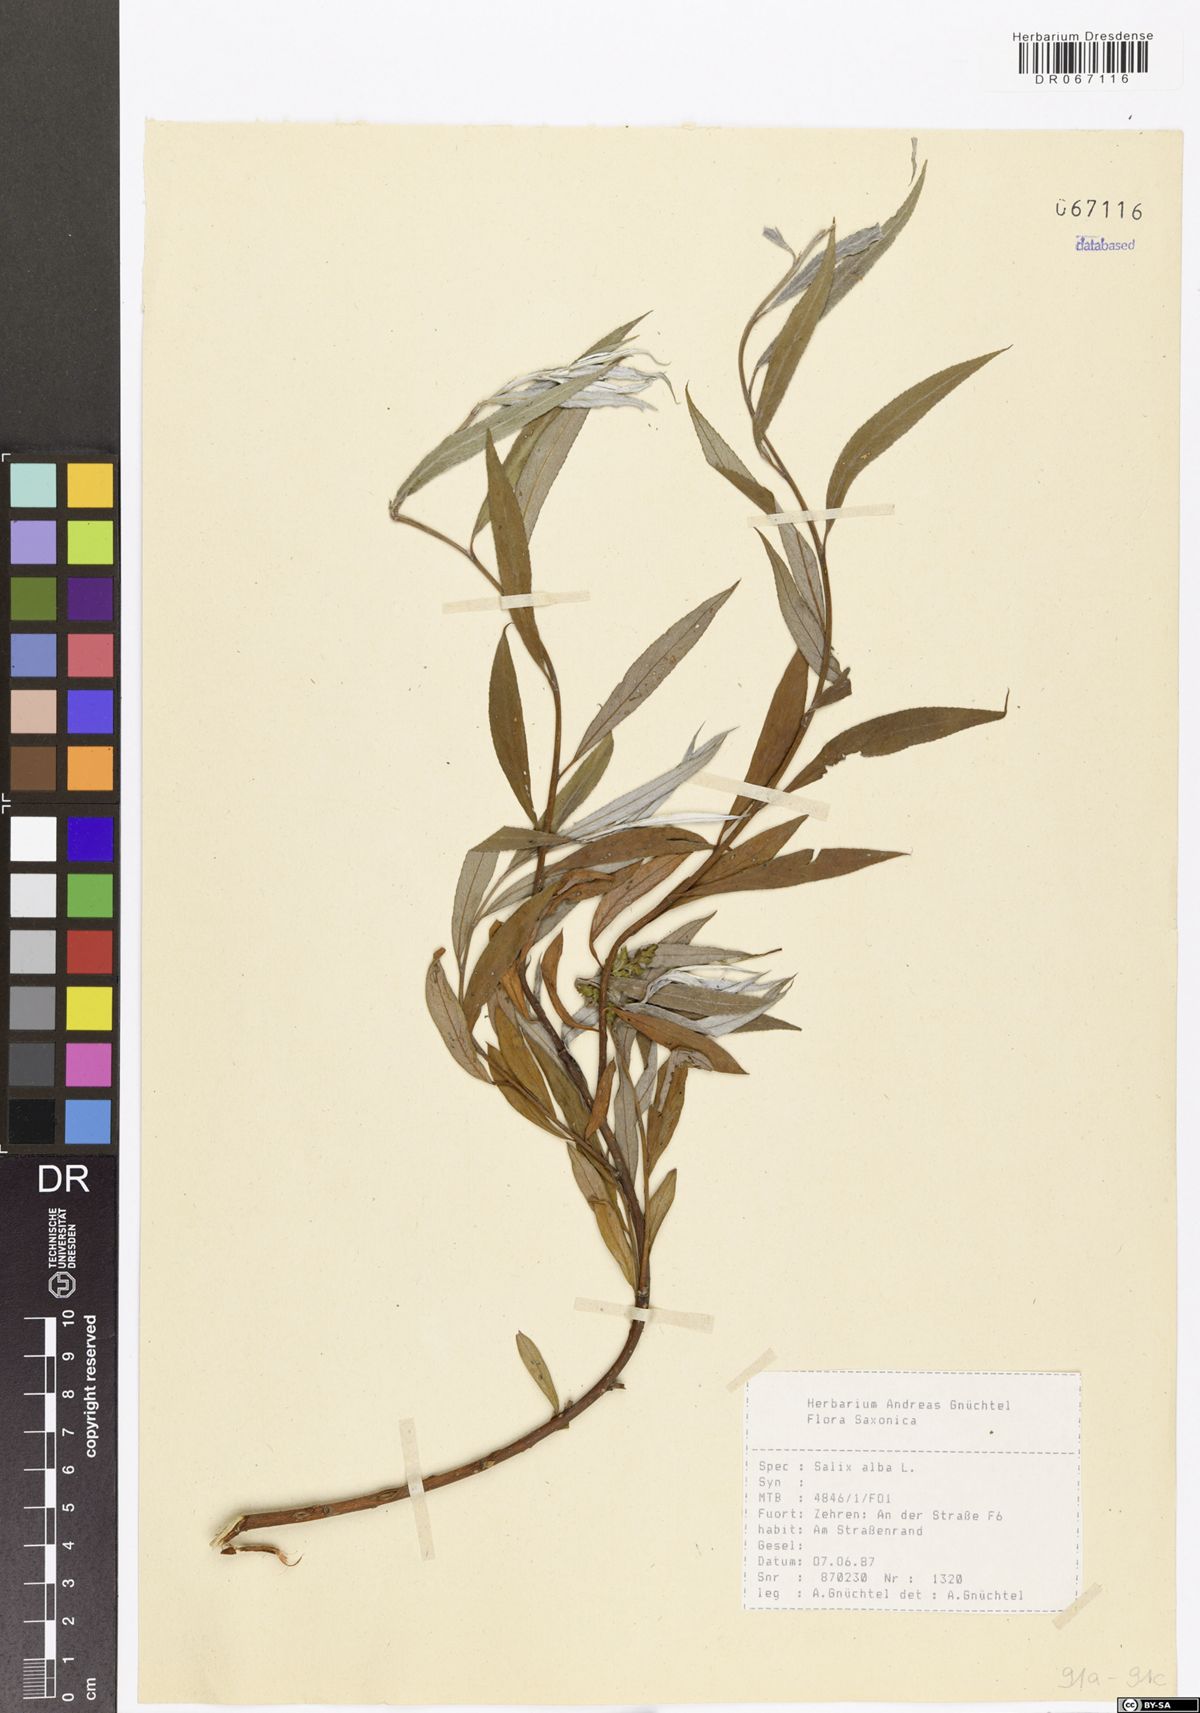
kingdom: Plantae
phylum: Tracheophyta
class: Magnoliopsida
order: Malpighiales
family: Salicaceae
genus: Salix
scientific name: Salix alba
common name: White willow
